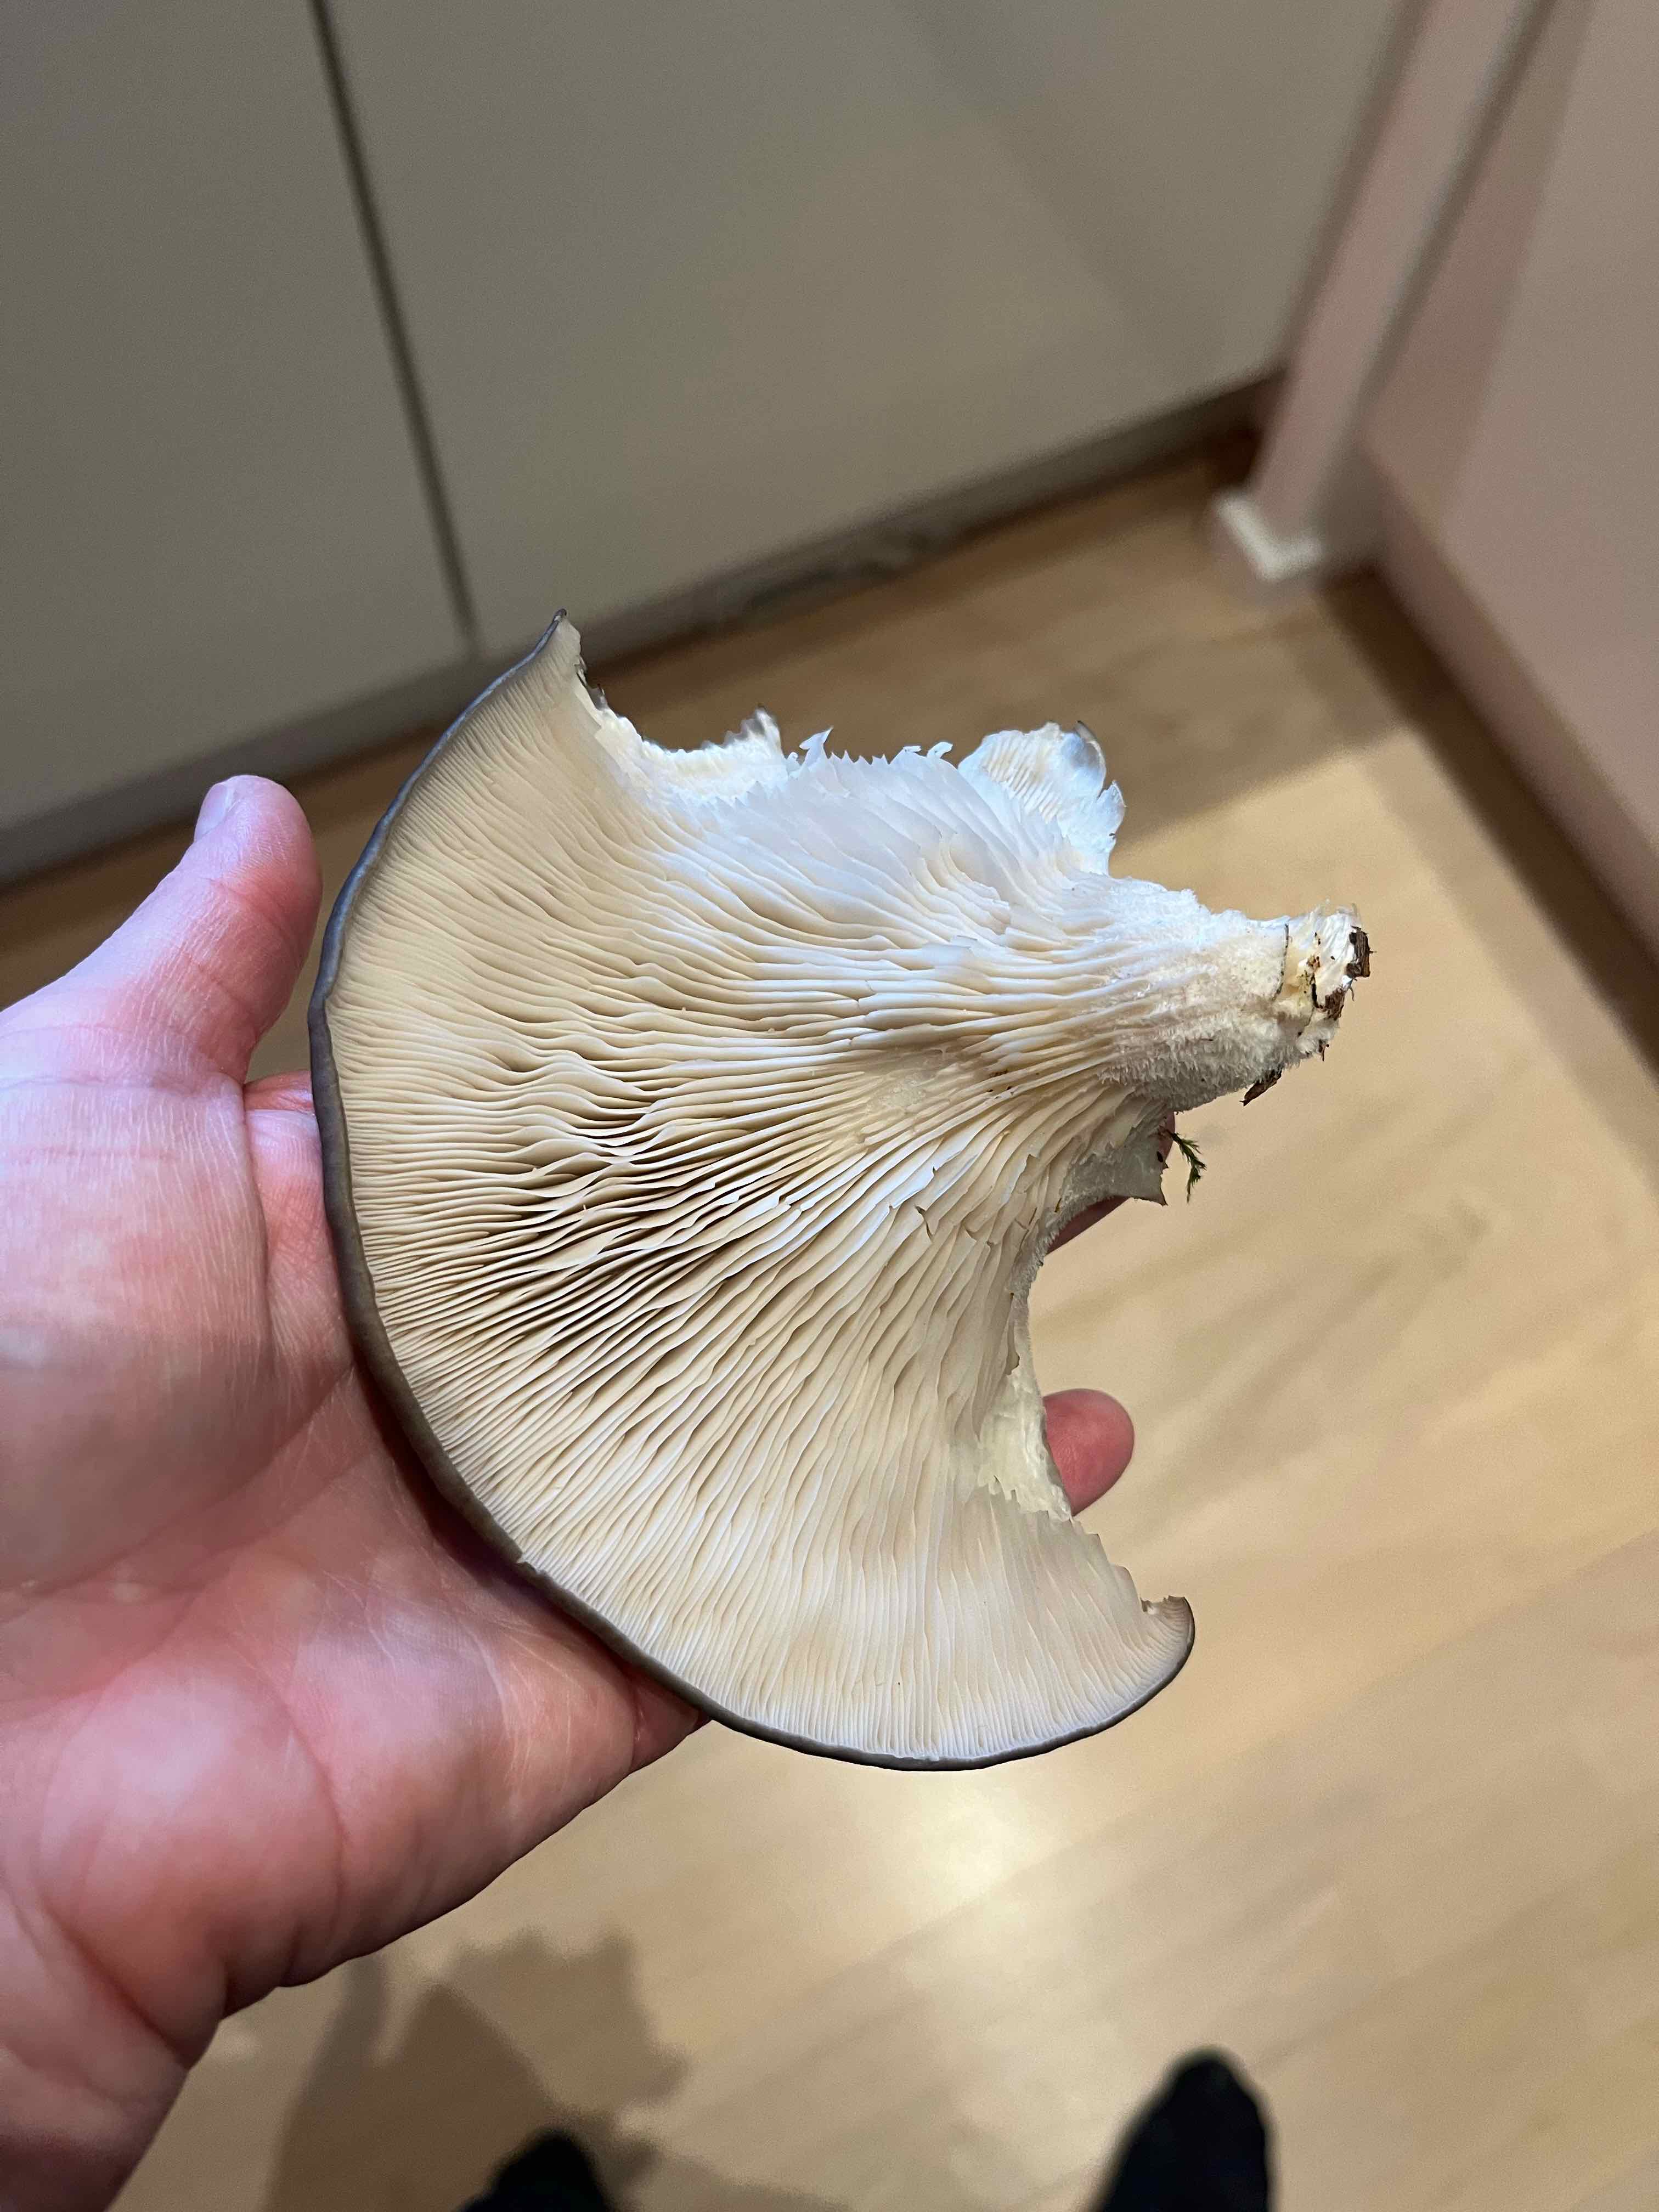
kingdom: Fungi
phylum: Basidiomycota
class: Agaricomycetes
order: Agaricales
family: Pleurotaceae
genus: Pleurotus
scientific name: Pleurotus ostreatus
